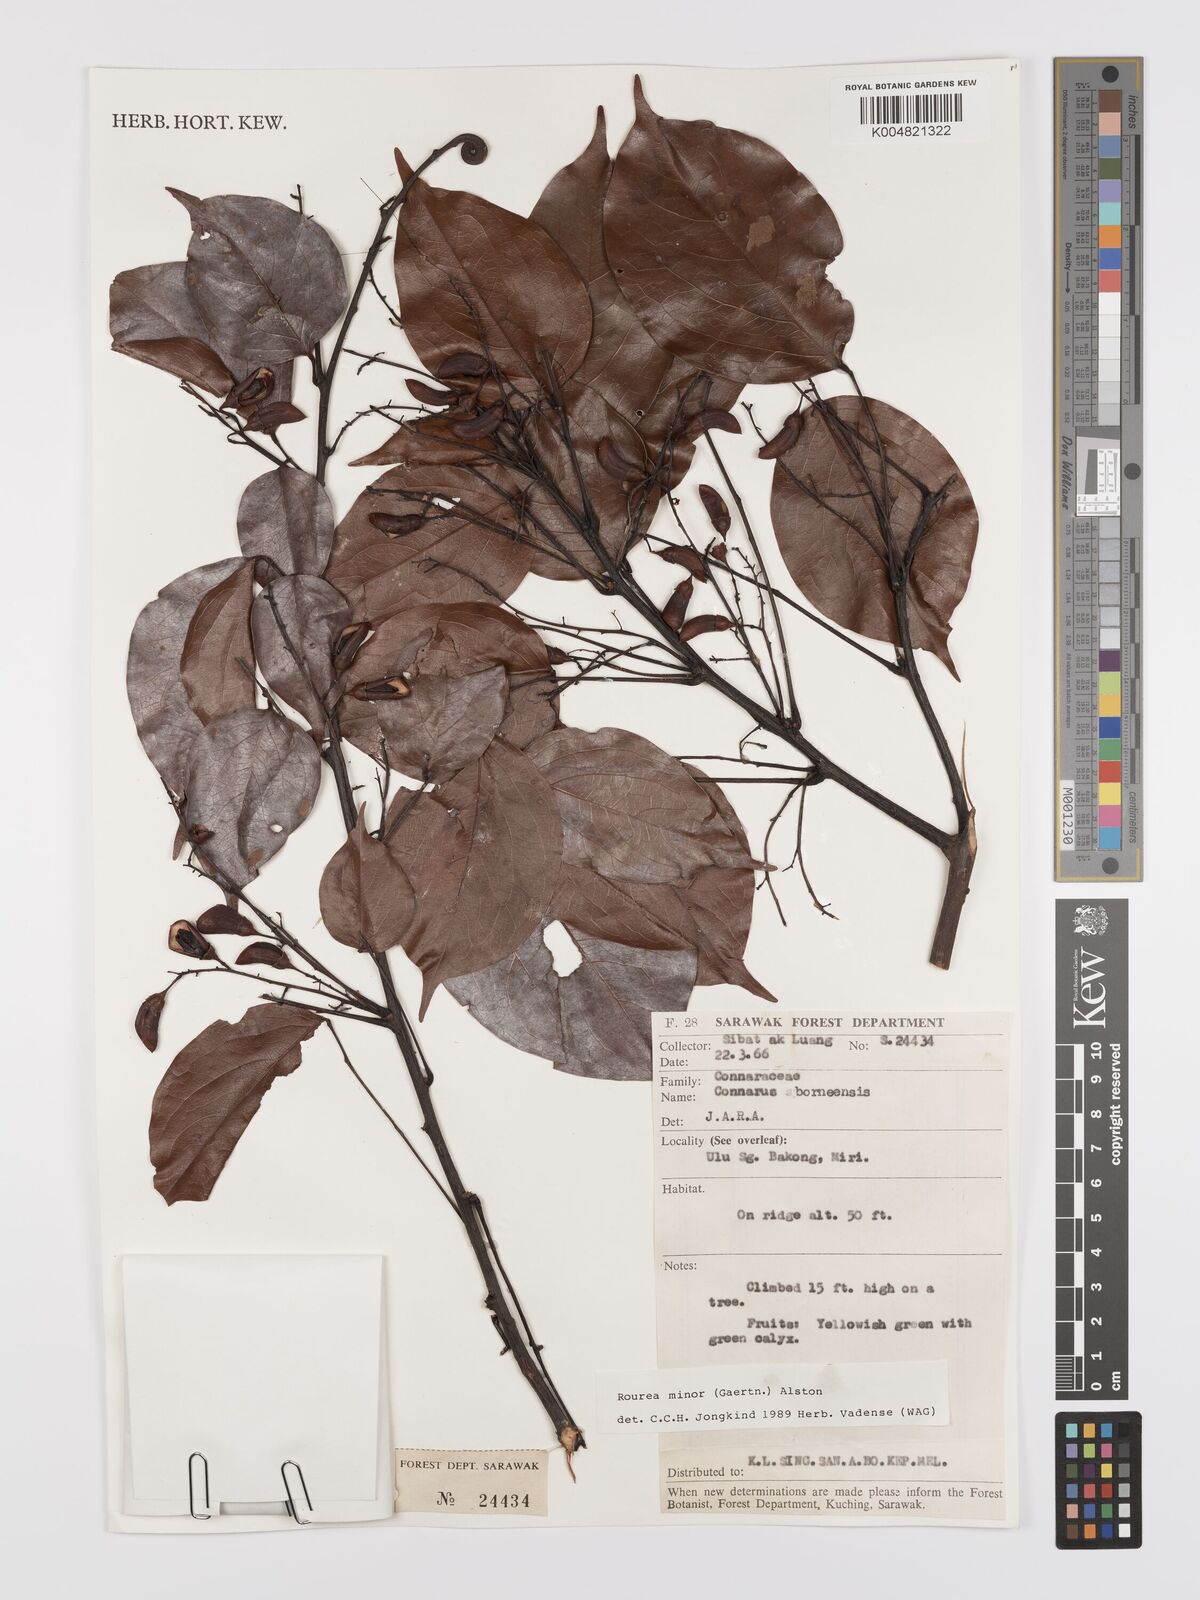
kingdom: Plantae
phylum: Tracheophyta
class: Magnoliopsida
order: Oxalidales
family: Connaraceae
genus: Rourea
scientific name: Rourea minor
